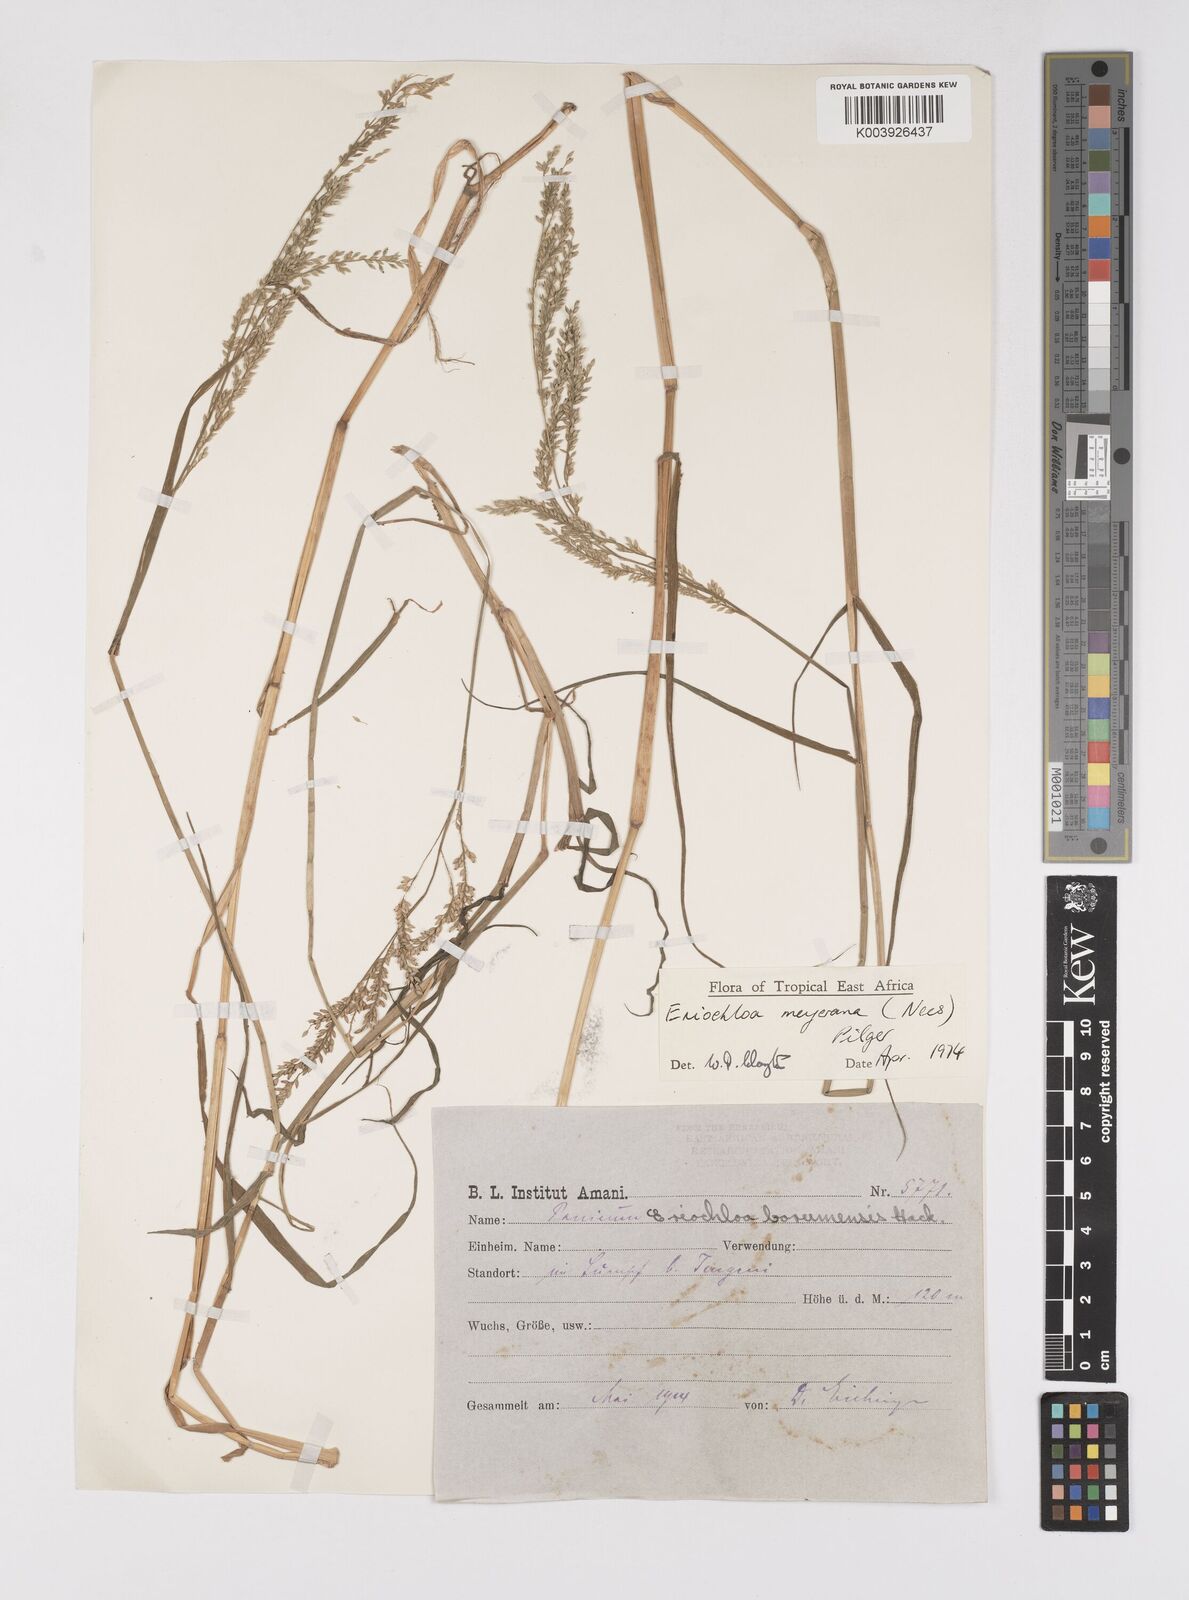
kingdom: Plantae
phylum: Tracheophyta
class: Liliopsida
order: Poales
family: Poaceae
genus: Eriochloa
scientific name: Eriochloa meyeriana
